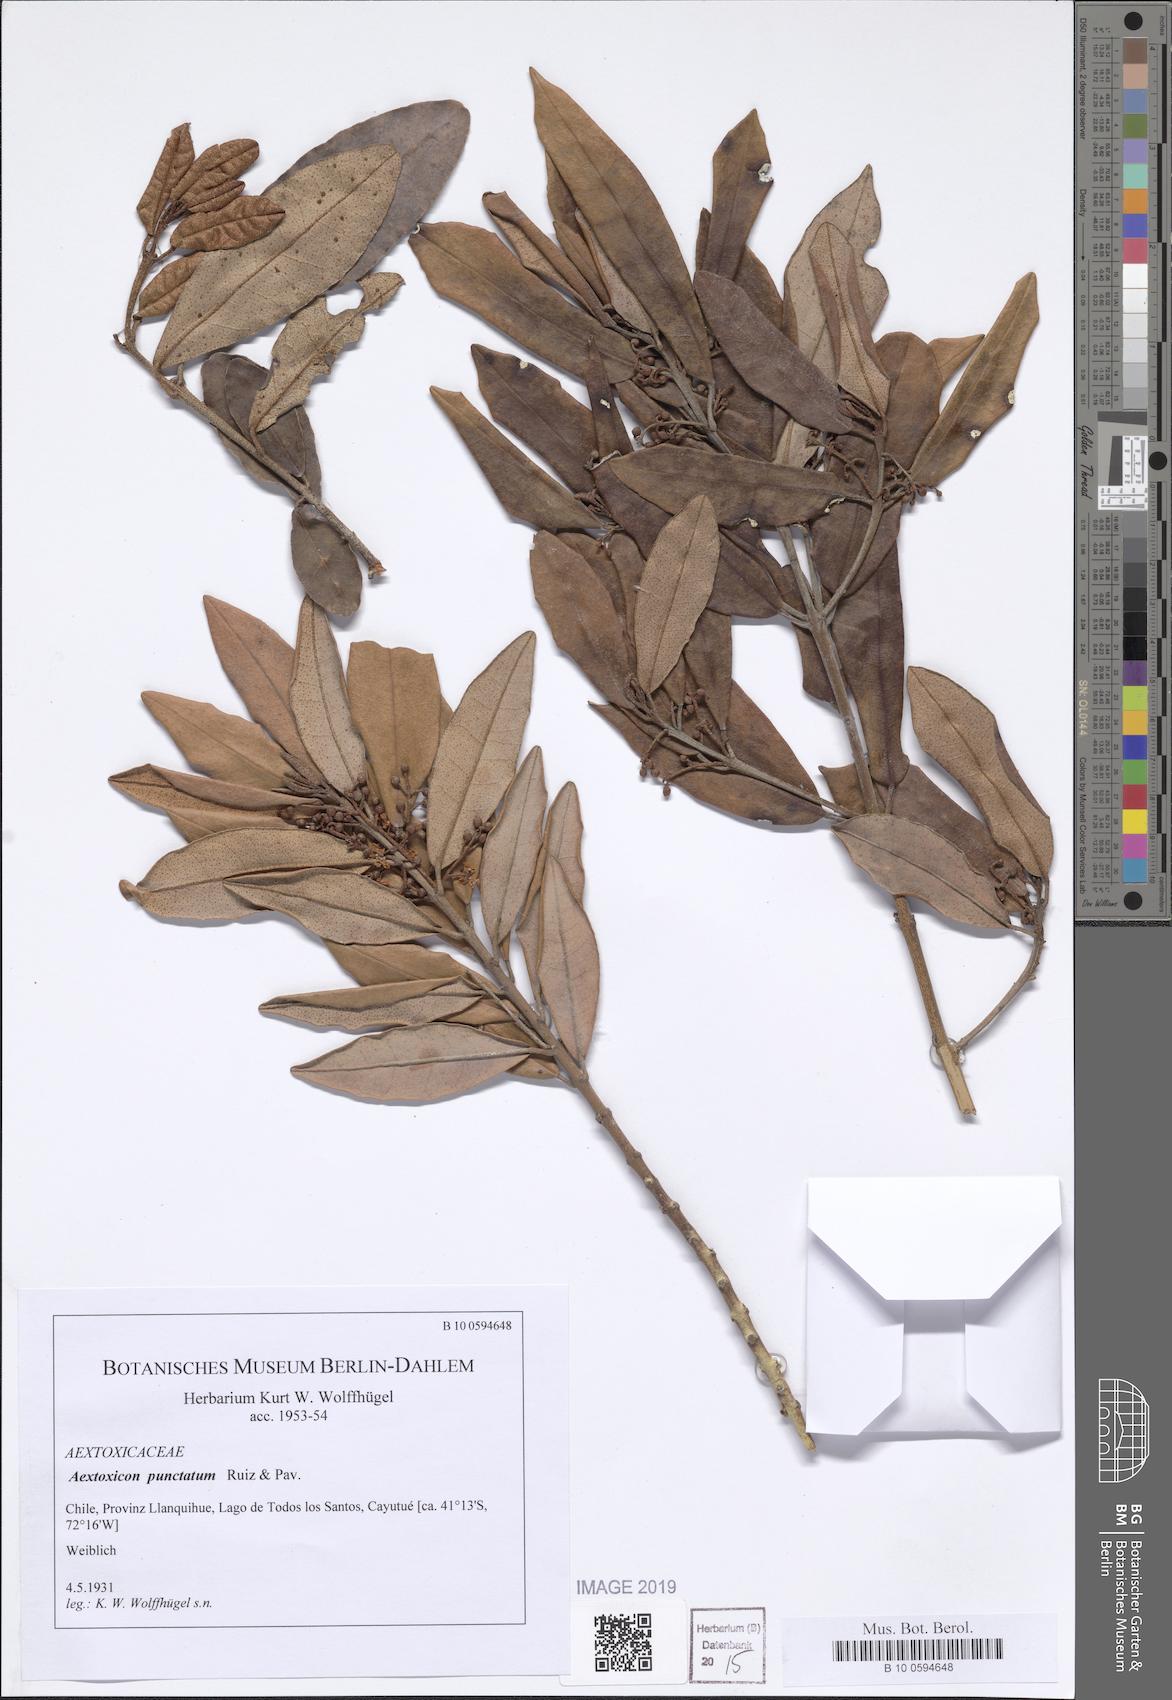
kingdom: Plantae
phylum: Tracheophyta
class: Magnoliopsida
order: Berberidopsidales
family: Aextoxicaceae
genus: Aextoxicon
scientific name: Aextoxicon punctatum
